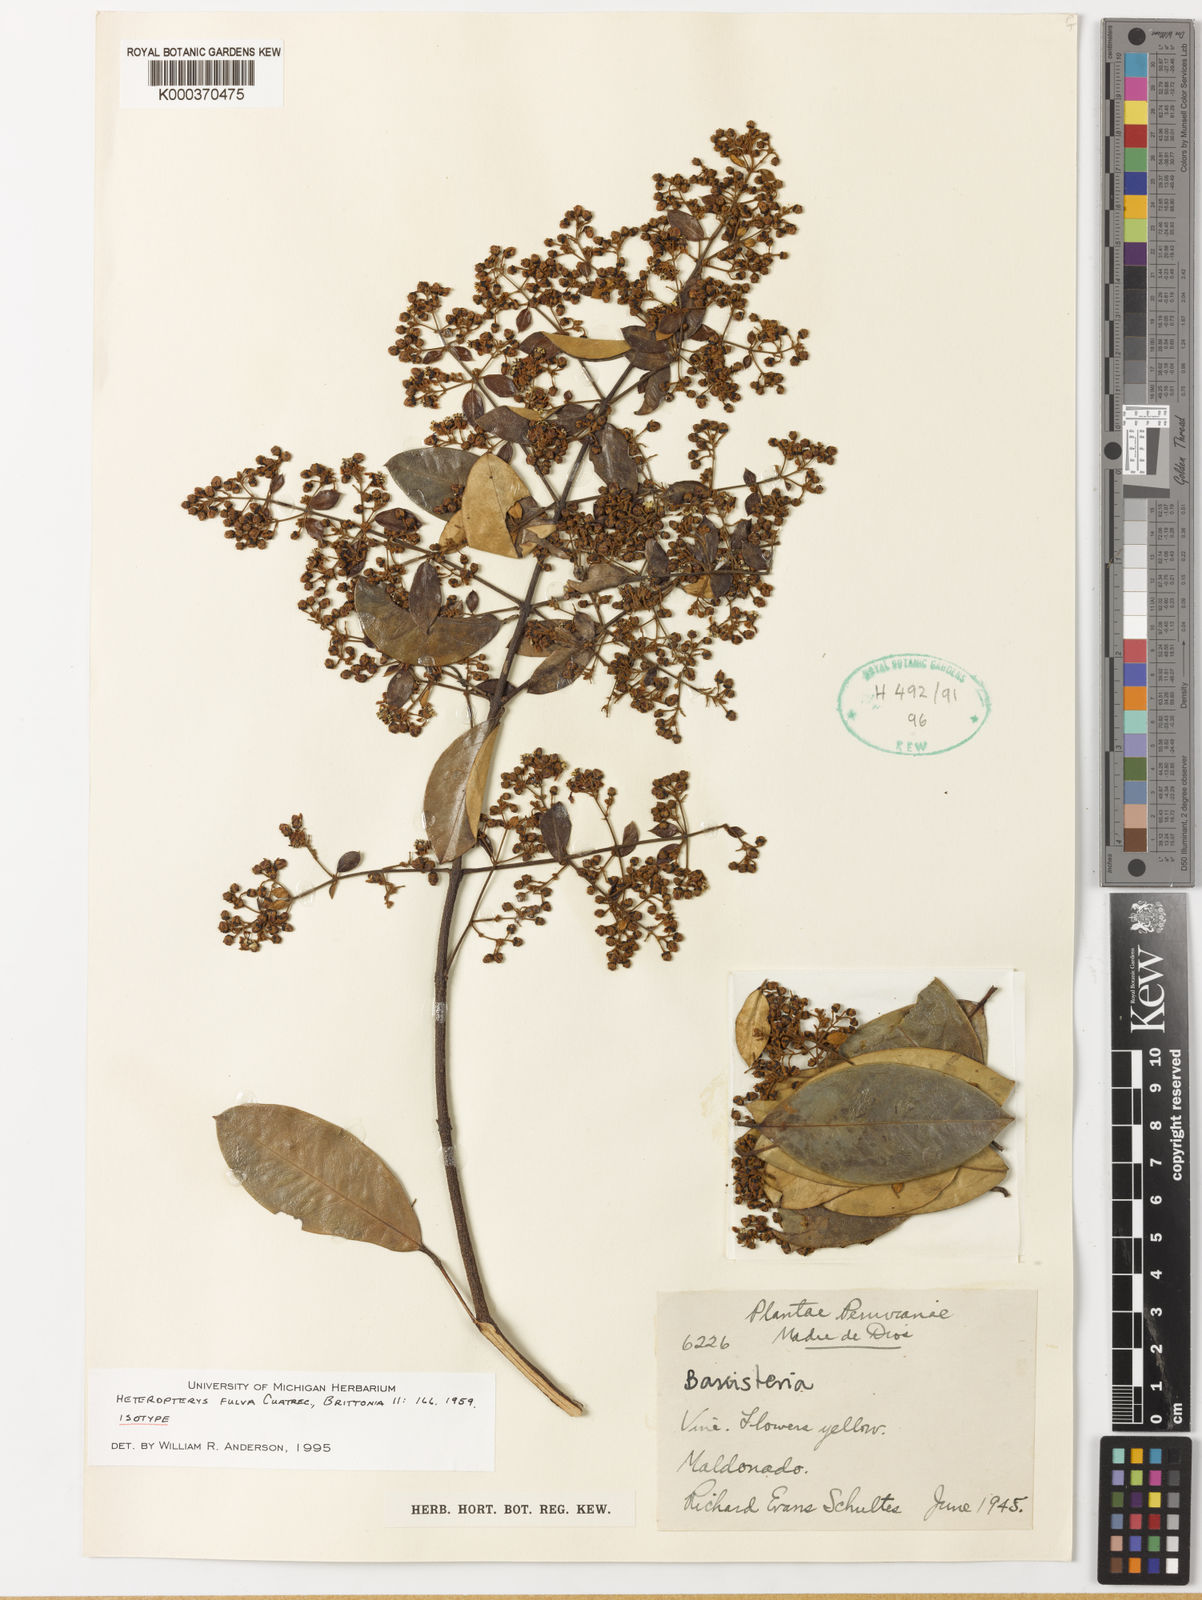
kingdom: Plantae
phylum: Tracheophyta
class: Magnoliopsida
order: Malpighiales
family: Malpighiaceae
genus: Heteropterys
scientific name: Heteropterys fulva
